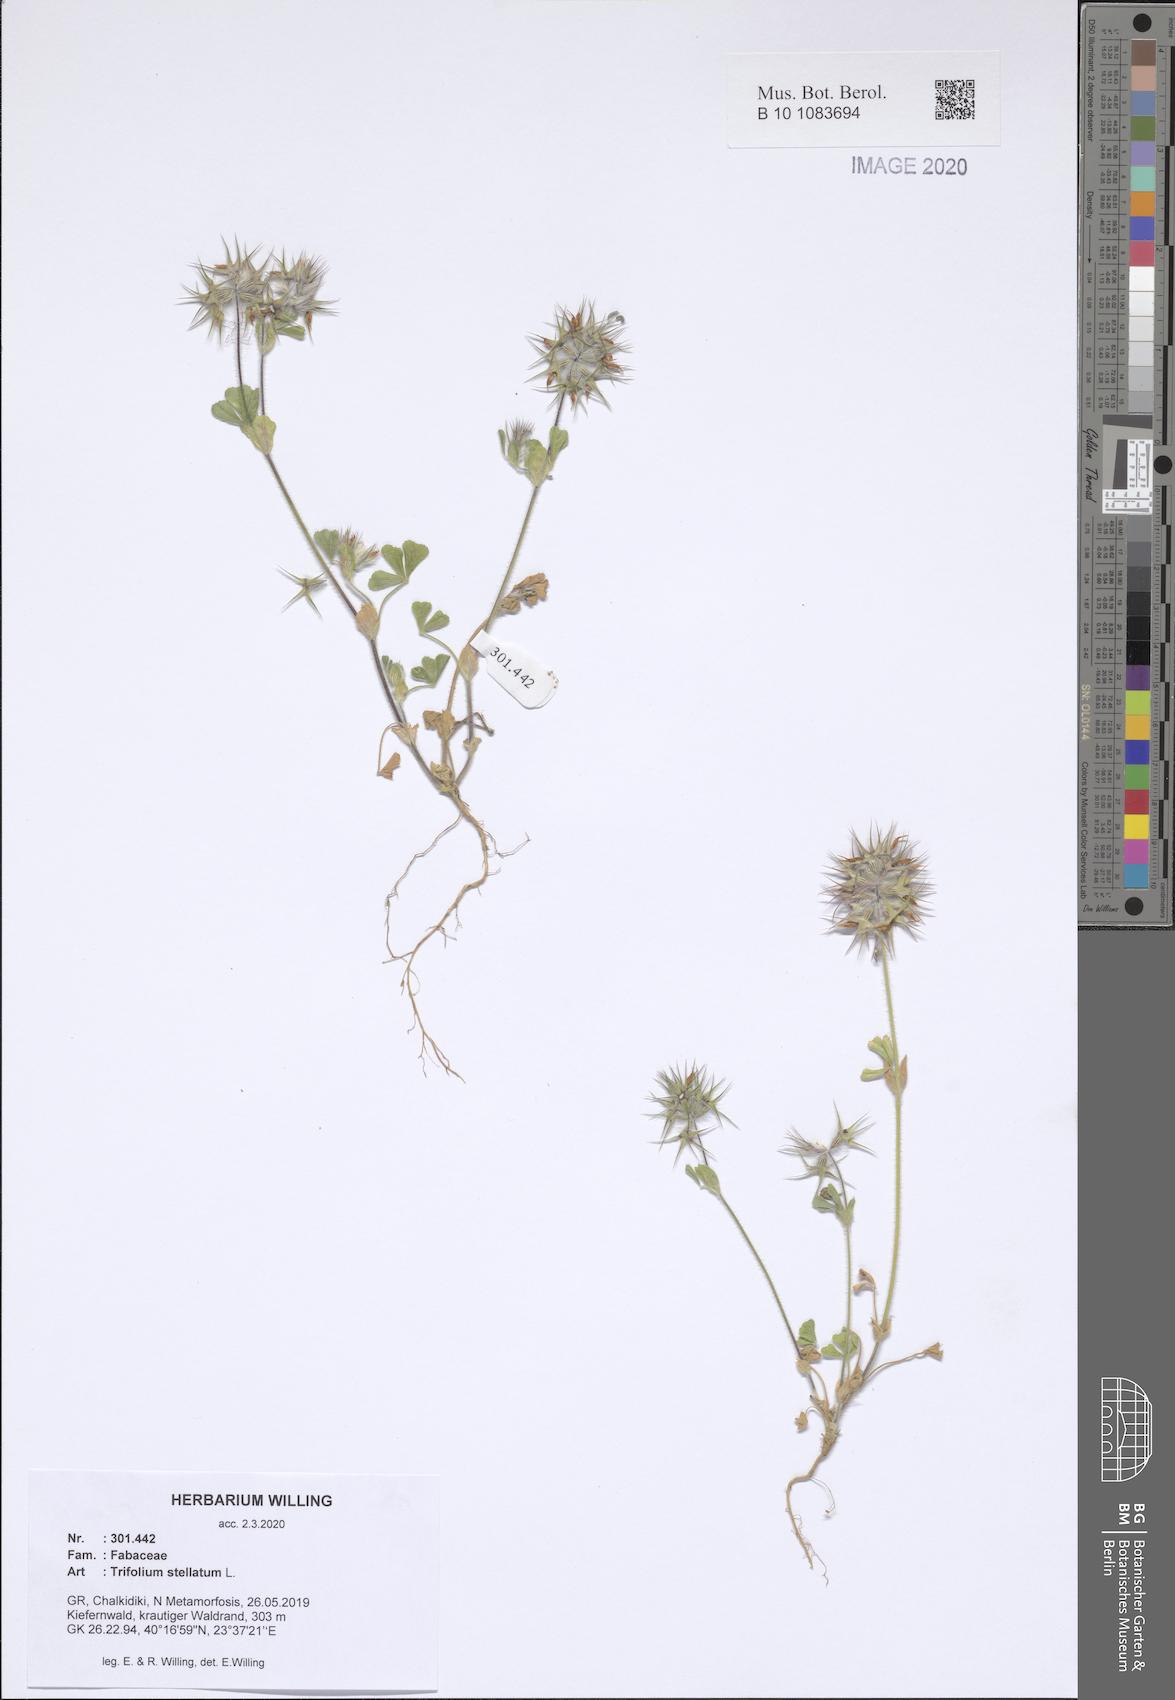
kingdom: Plantae
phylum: Tracheophyta
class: Magnoliopsida
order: Fabales
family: Fabaceae
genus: Trifolium
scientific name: Trifolium stellatum
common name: Starry clover
